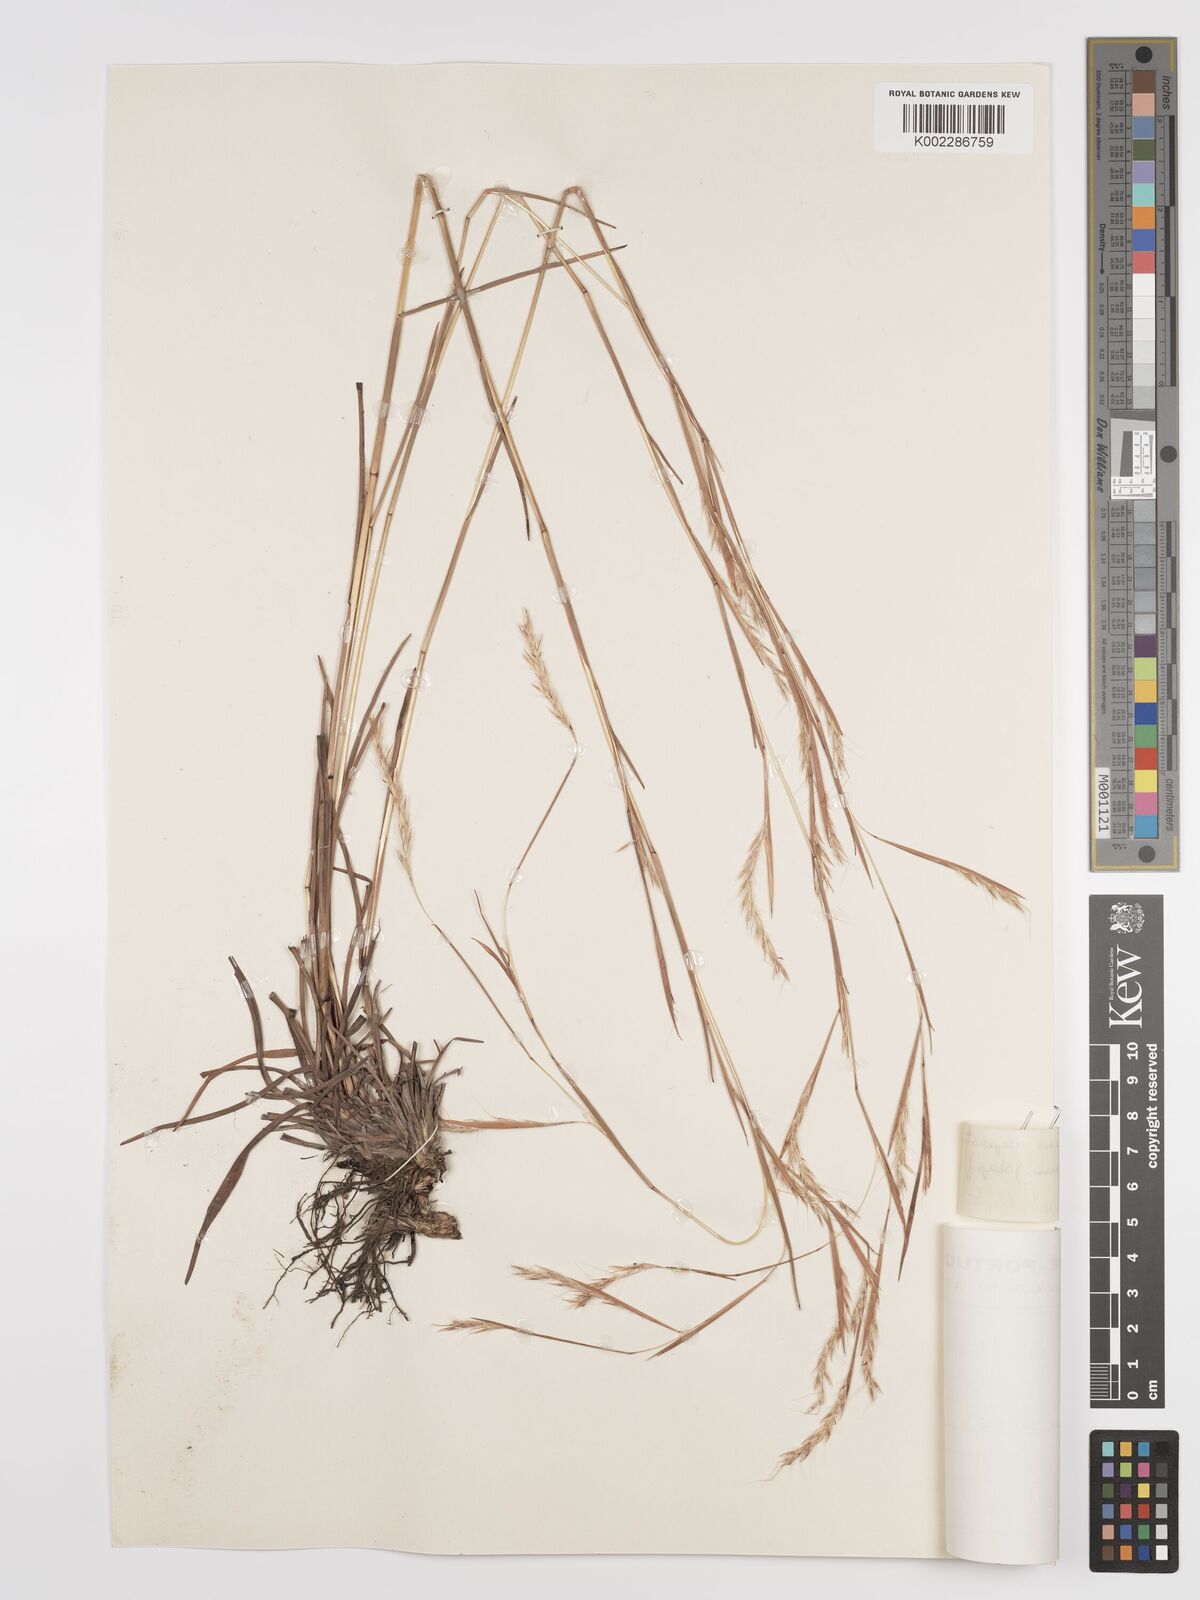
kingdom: Plantae
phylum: Tracheophyta
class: Liliopsida
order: Poales
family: Poaceae
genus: Andropogon
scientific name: Andropogon rupestris
